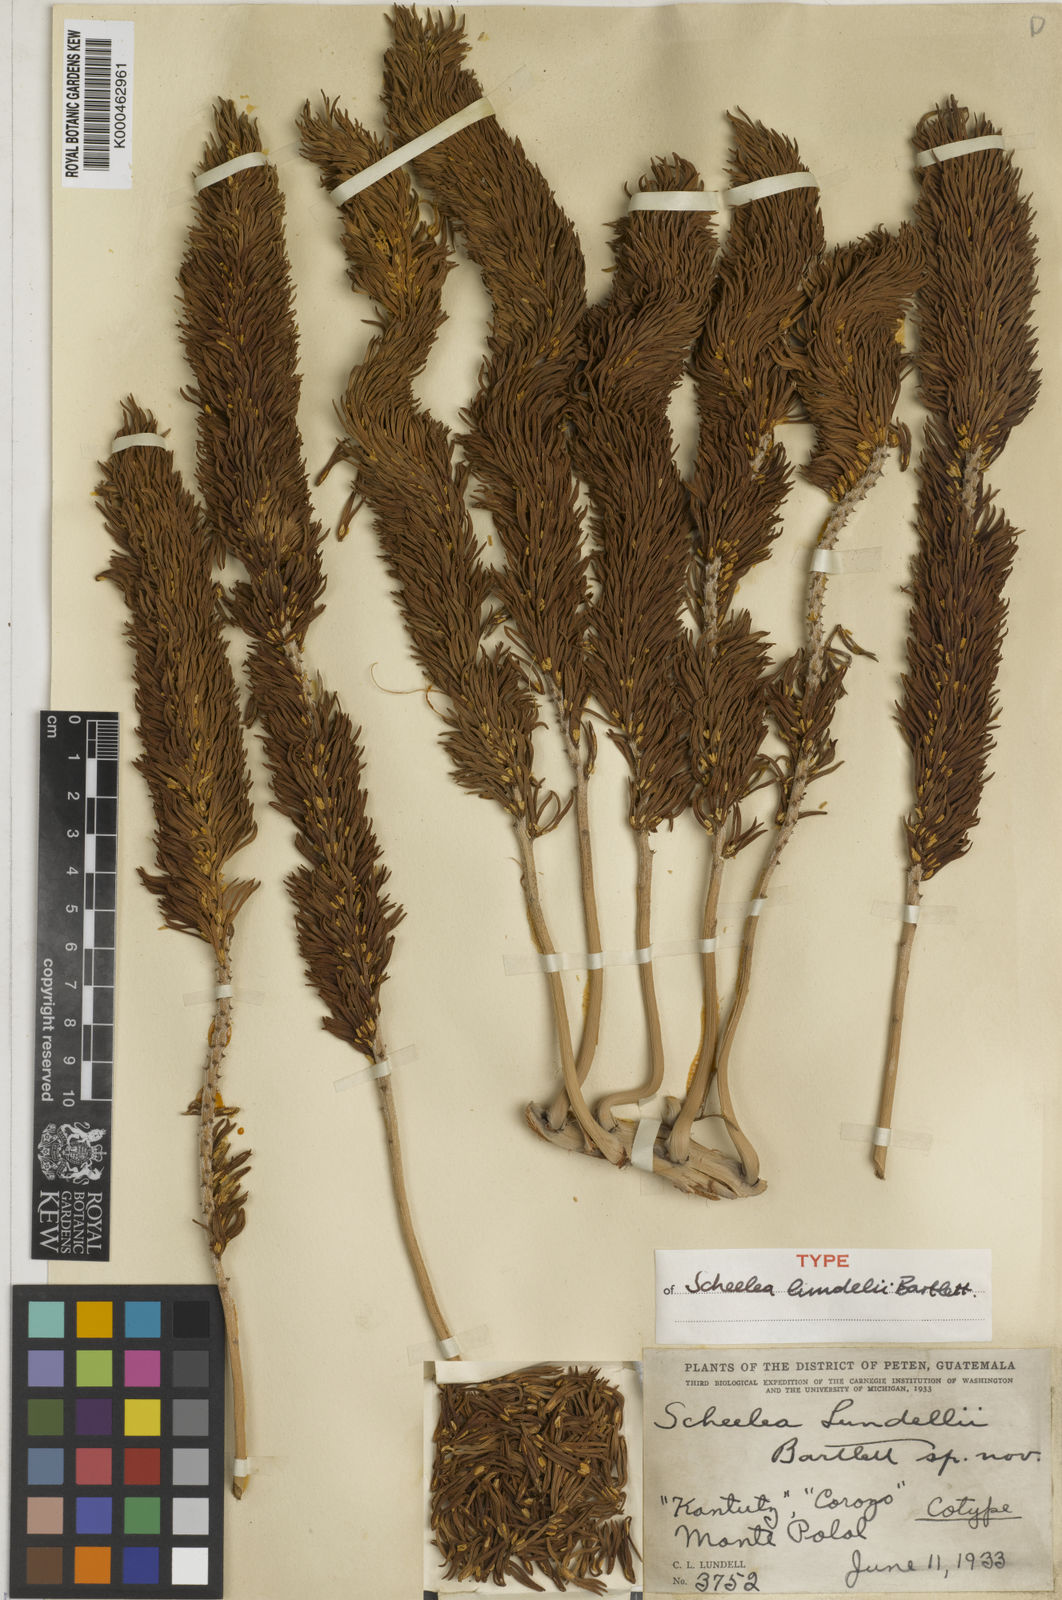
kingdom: Plantae
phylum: Tracheophyta
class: Liliopsida
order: Arecales
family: Arecaceae
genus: Attalea
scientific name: Attalea rostrata
